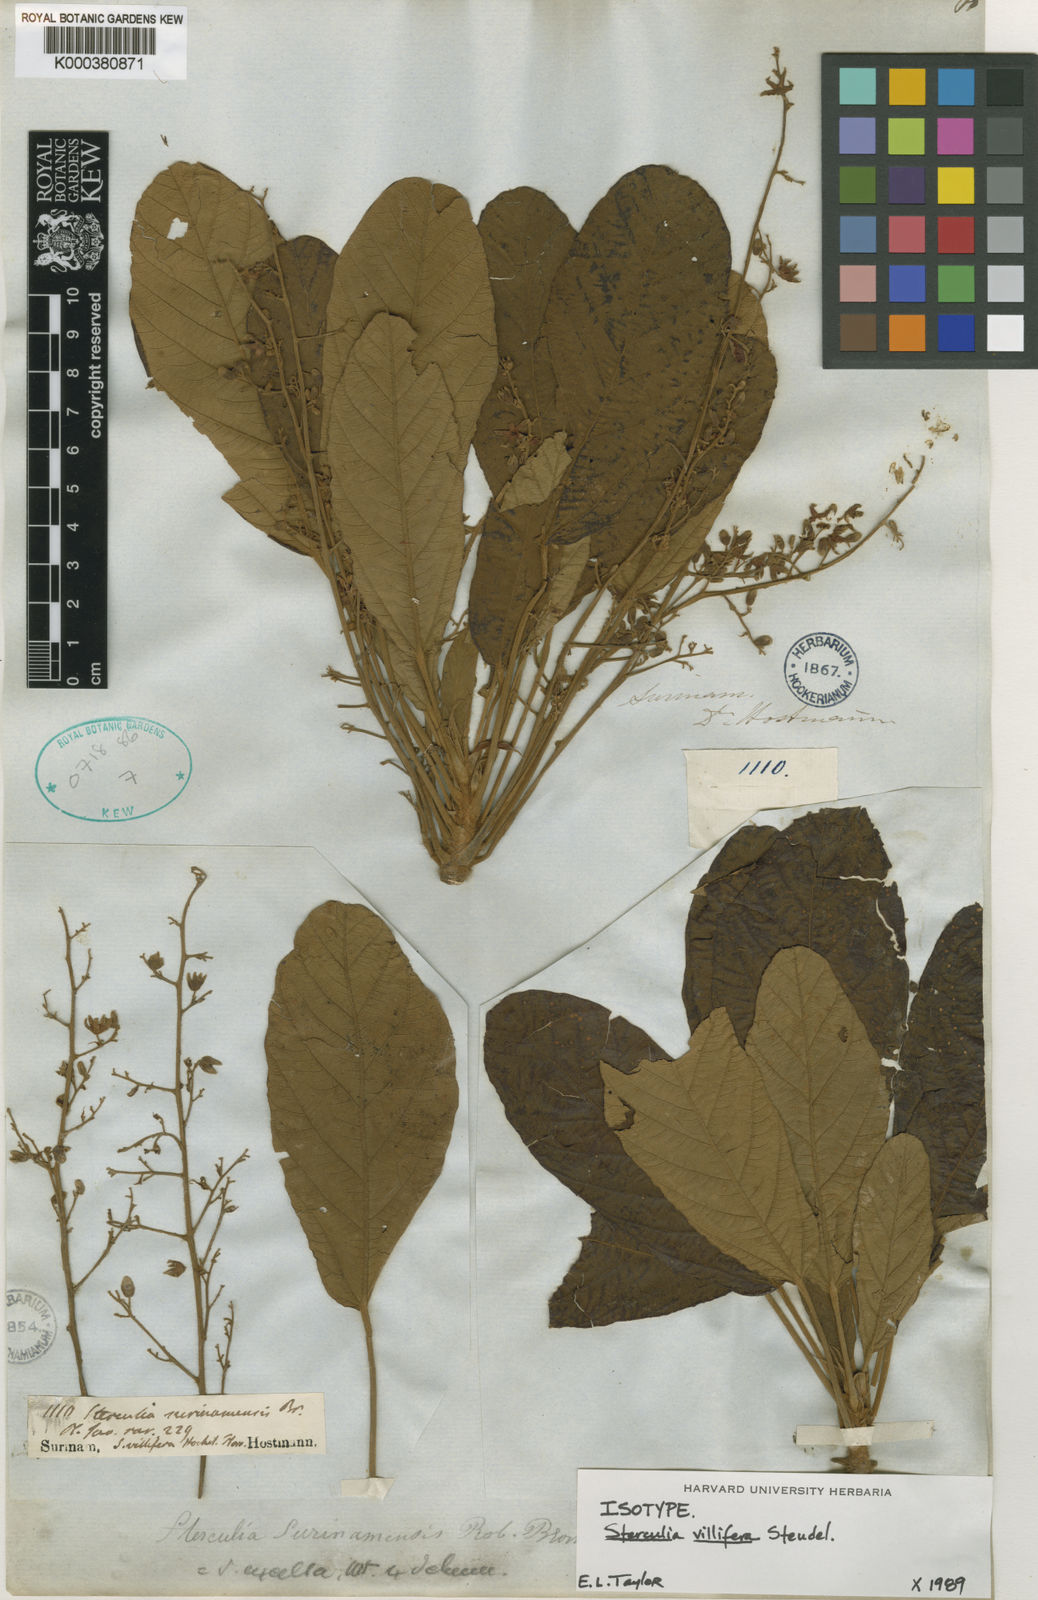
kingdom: Plantae
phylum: Tracheophyta
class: Magnoliopsida
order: Malvales
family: Malvaceae
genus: Sterculia
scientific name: Sterculia excelsa
